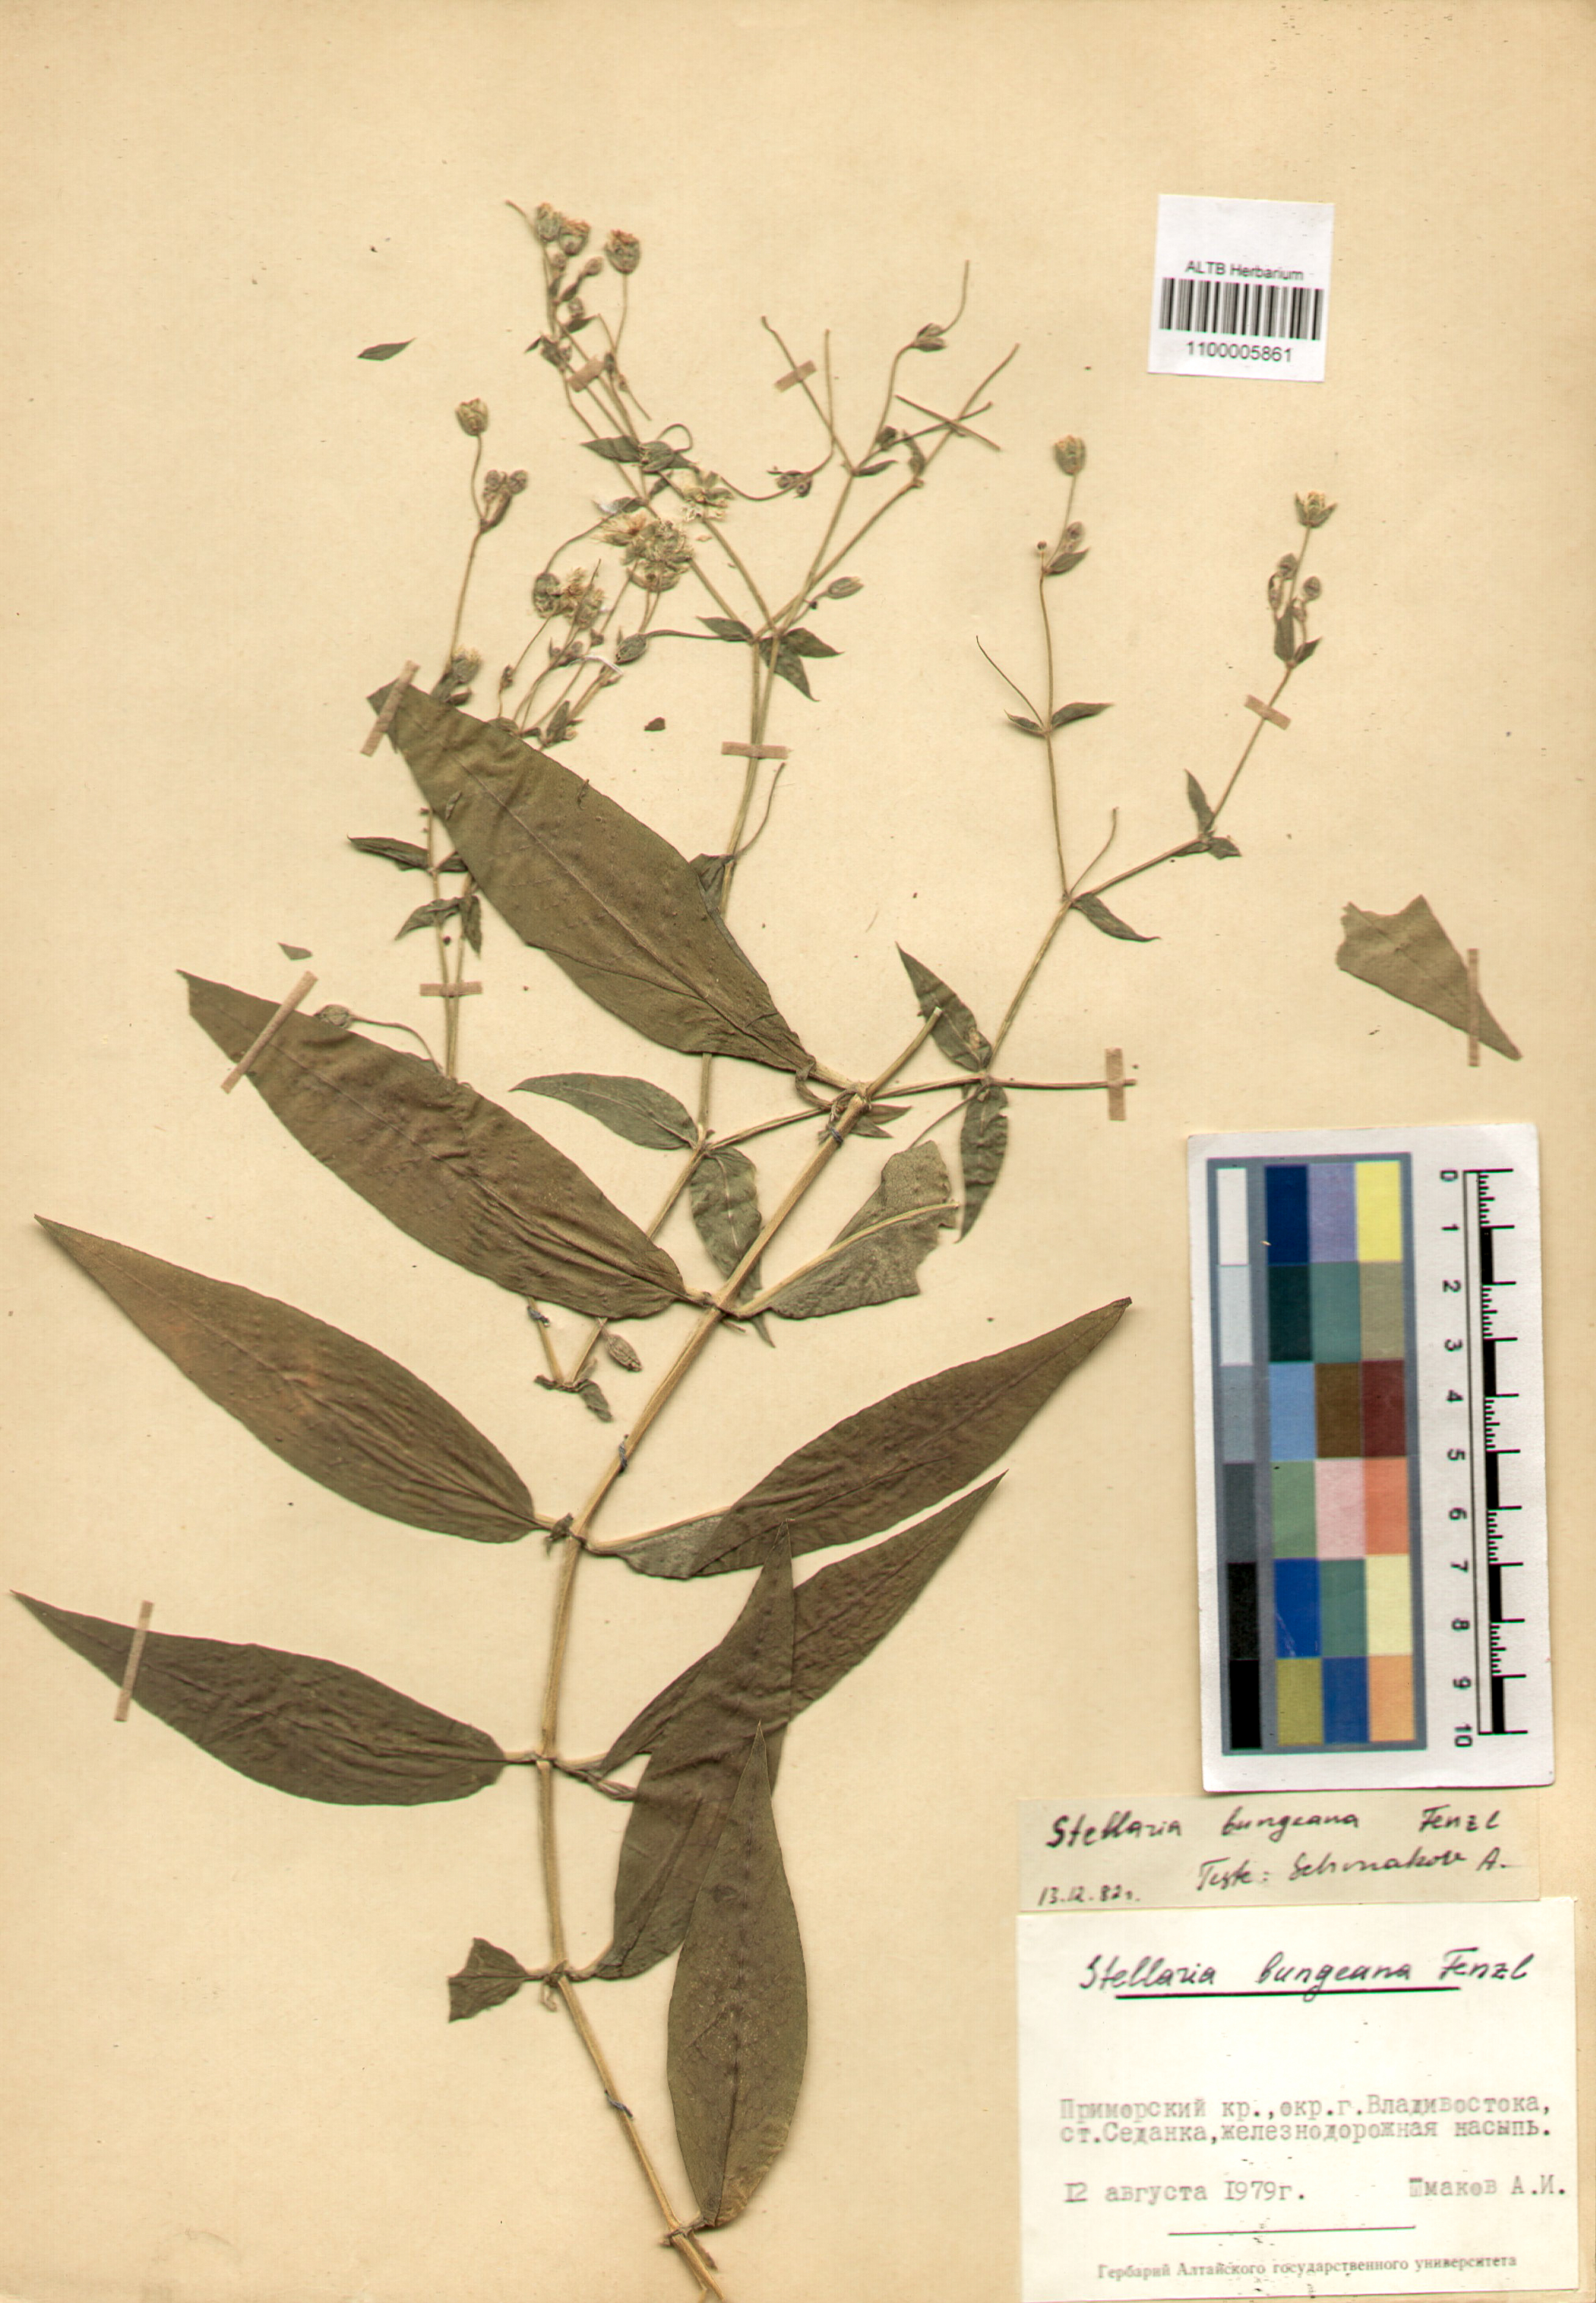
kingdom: Plantae
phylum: Tracheophyta
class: Magnoliopsida
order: Caryophyllales
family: Caryophyllaceae
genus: Stellaria
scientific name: Stellaria bungeana
